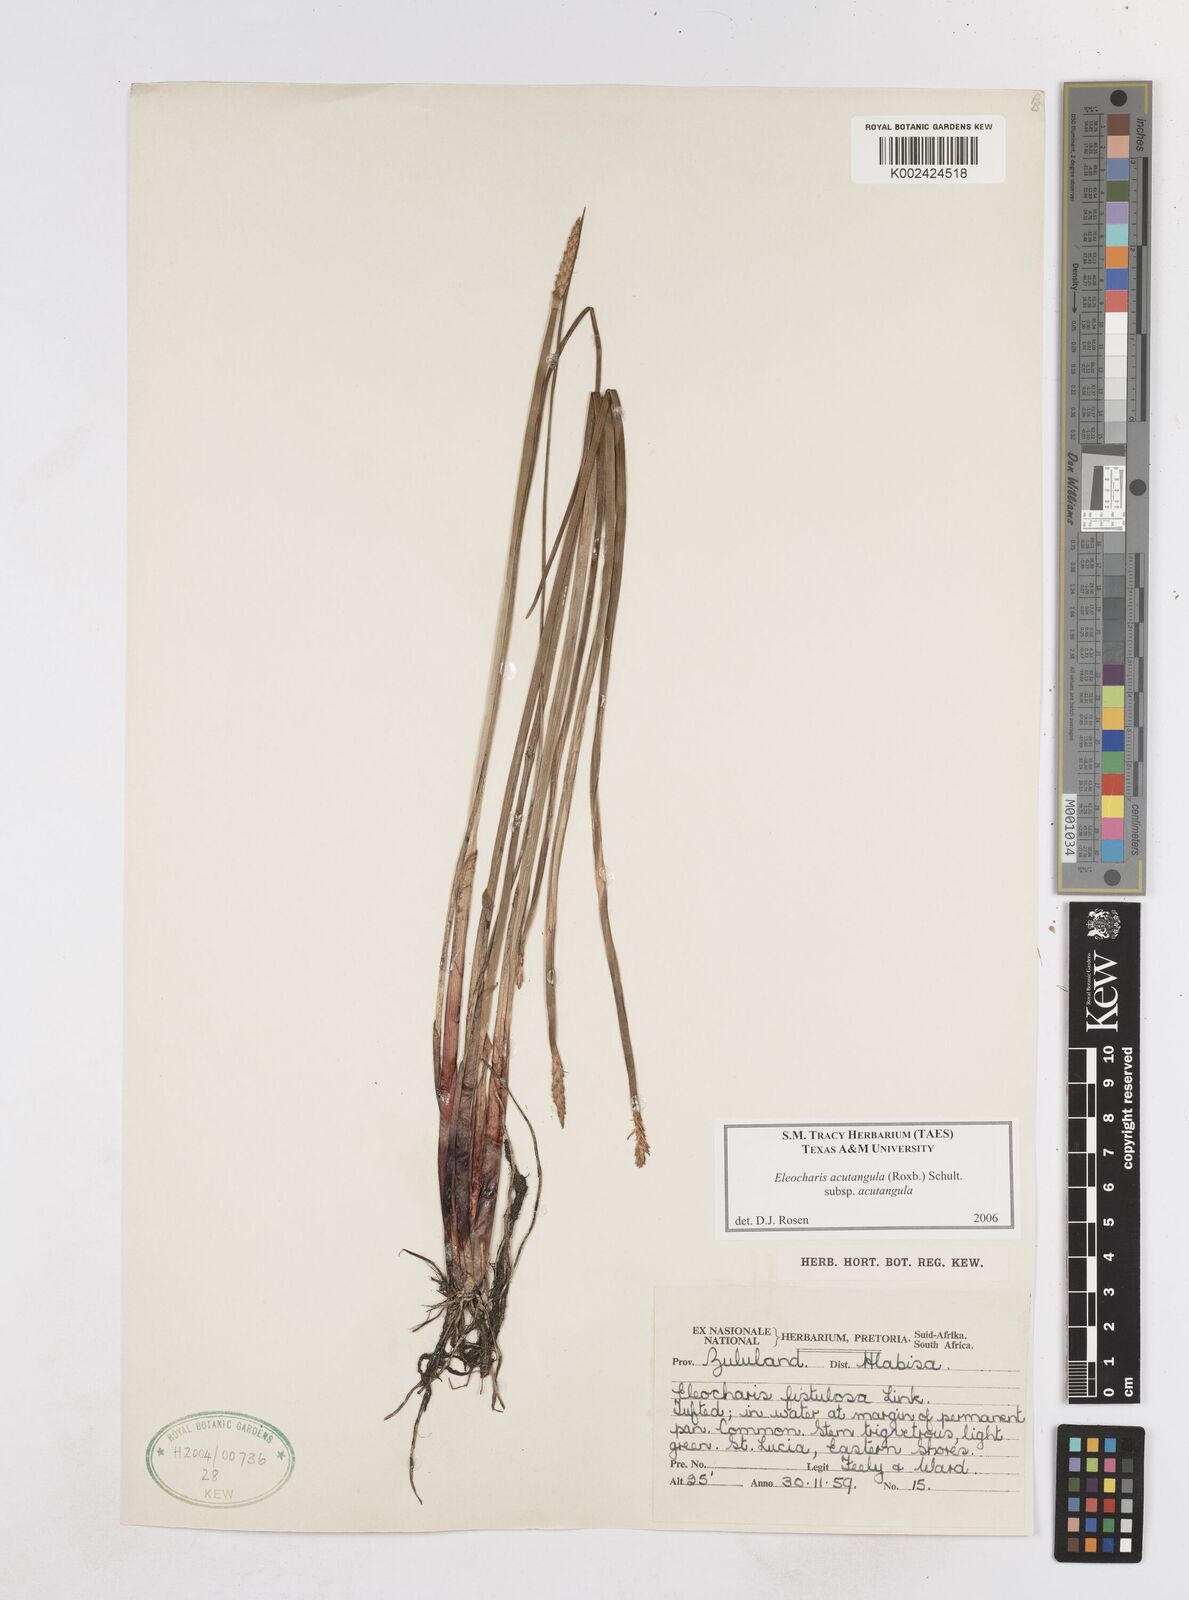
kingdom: Plantae
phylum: Tracheophyta
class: Liliopsida
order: Poales
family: Cyperaceae
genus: Eleocharis
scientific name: Eleocharis acutangula
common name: Acute spikerush
